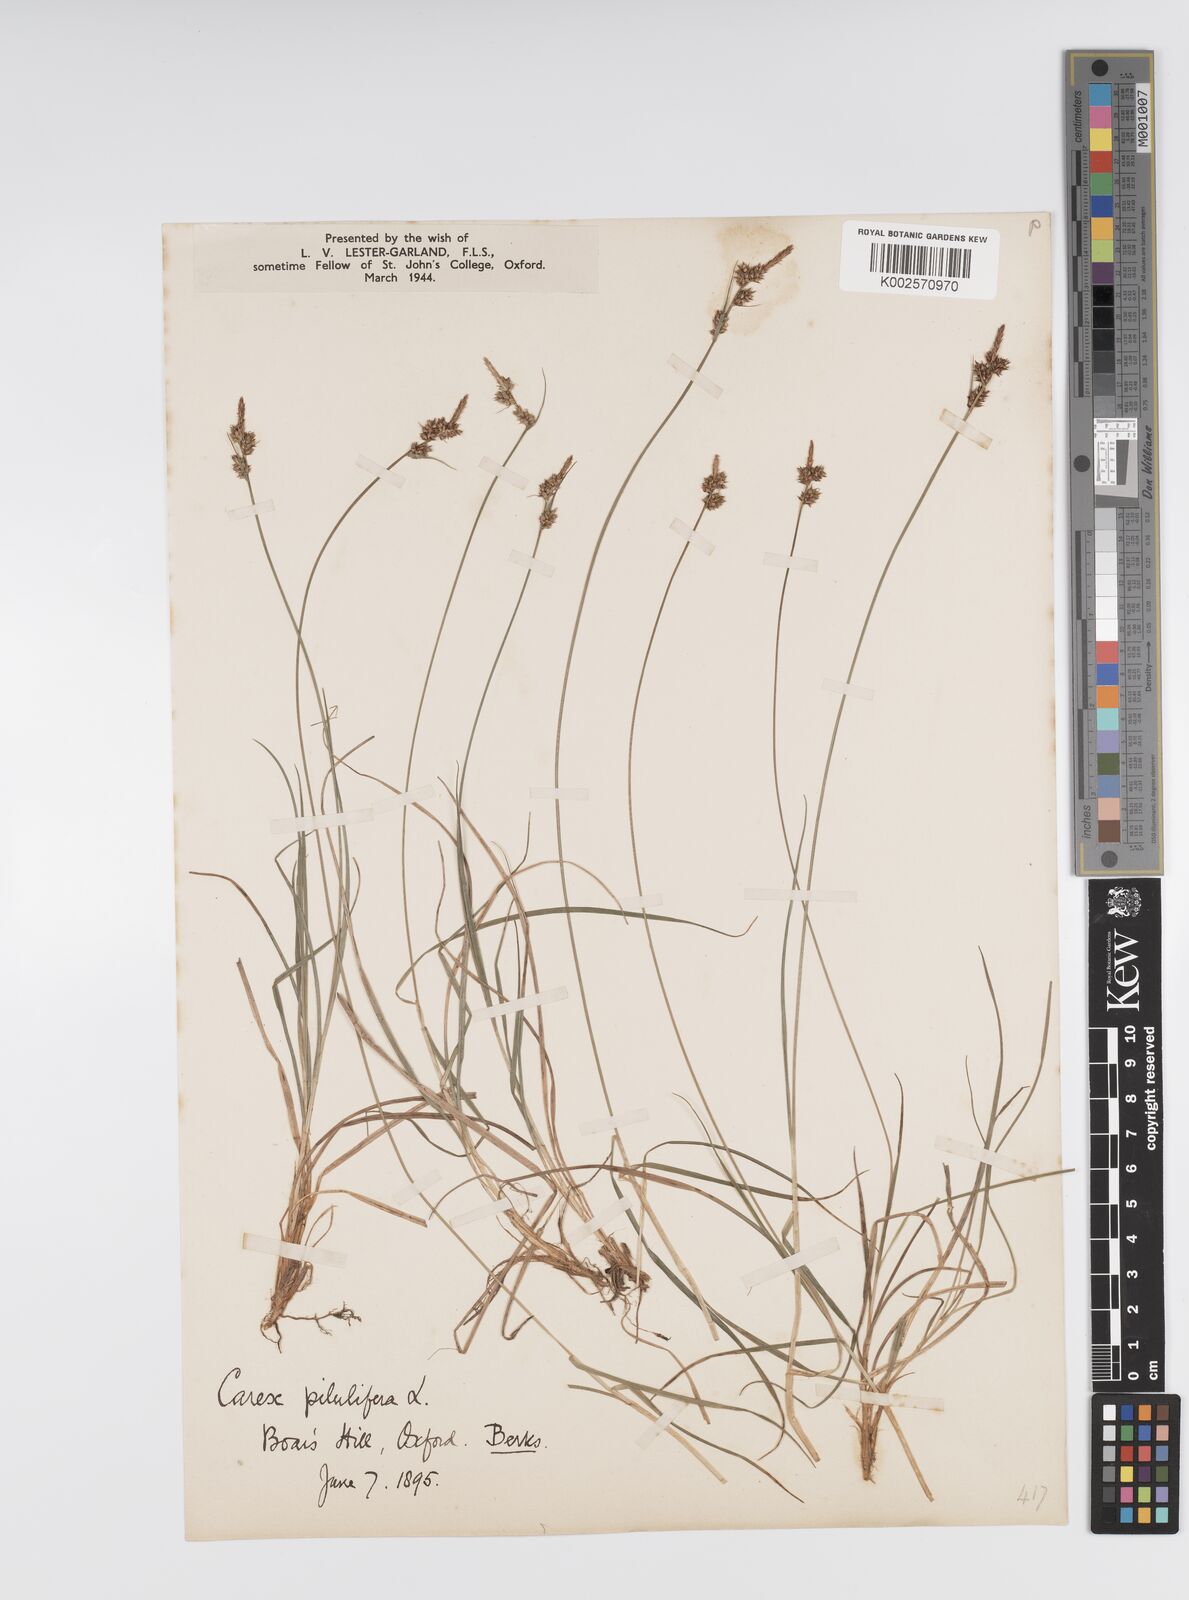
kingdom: Plantae
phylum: Tracheophyta
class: Liliopsida
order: Poales
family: Cyperaceae
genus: Carex
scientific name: Carex pilulifera
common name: Pill sedge
